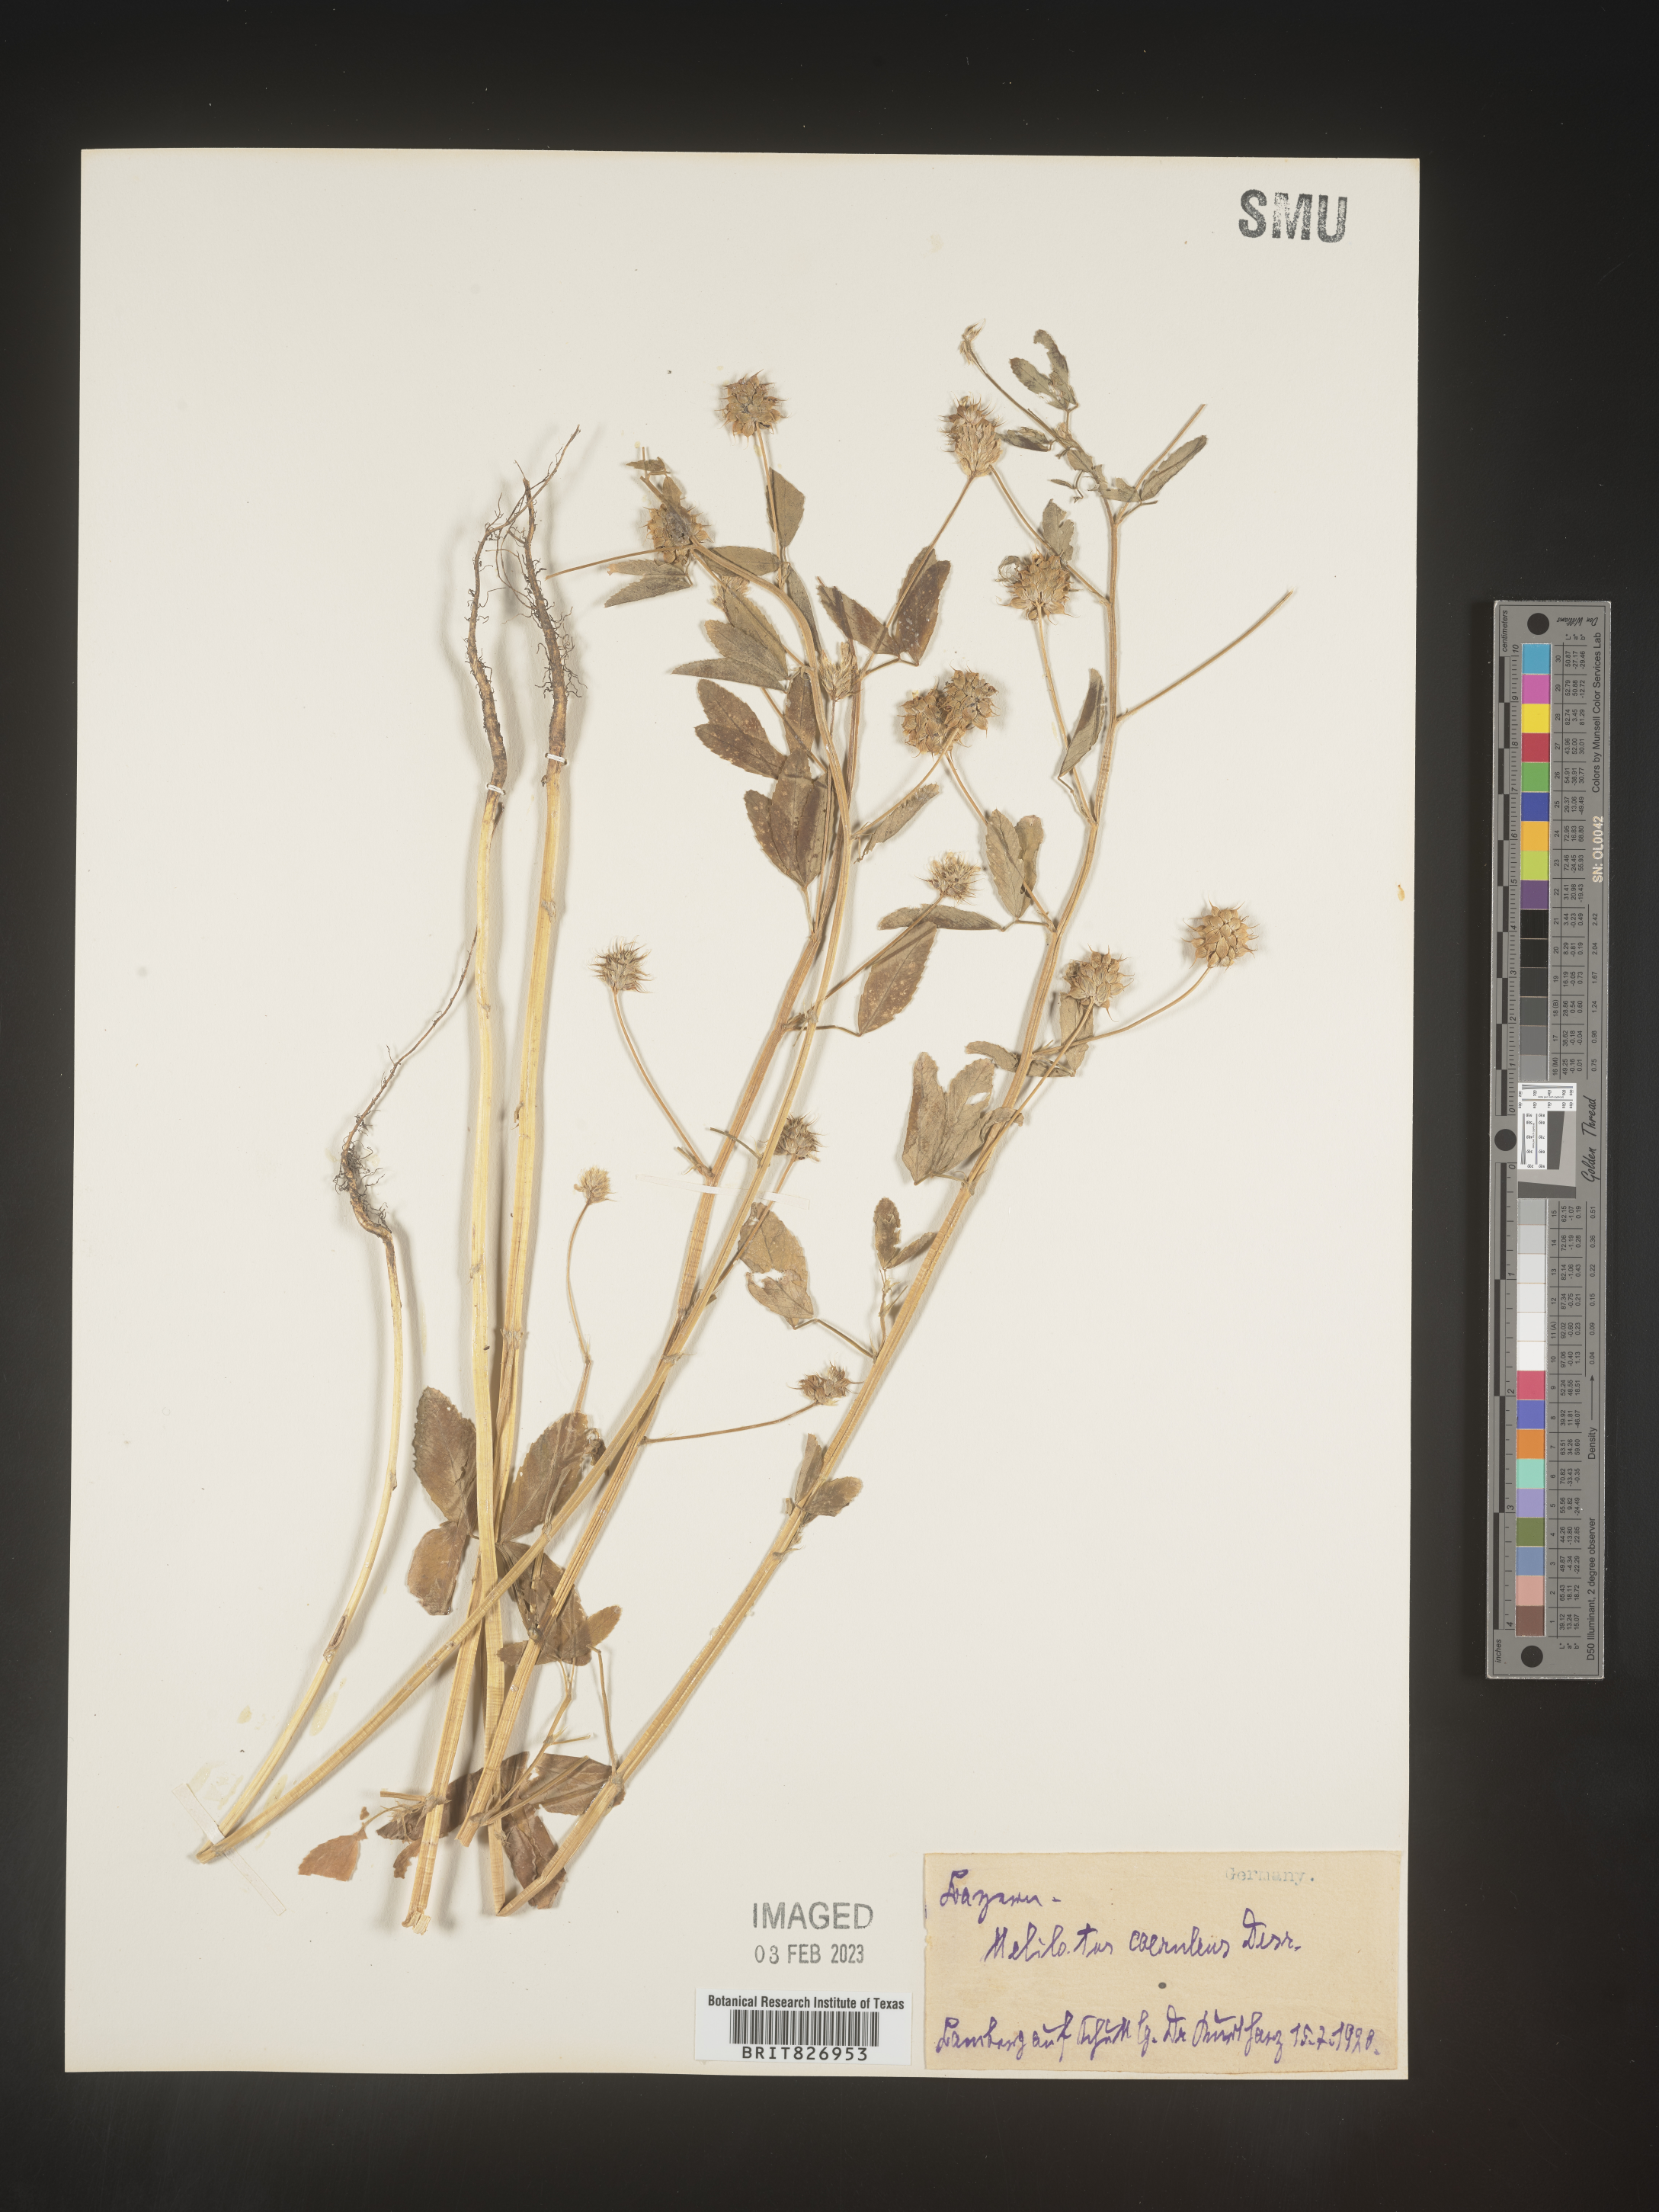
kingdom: Plantae
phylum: Tracheophyta
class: Magnoliopsida
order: Fabales
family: Fabaceae
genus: Melilotus
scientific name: Melilotus
